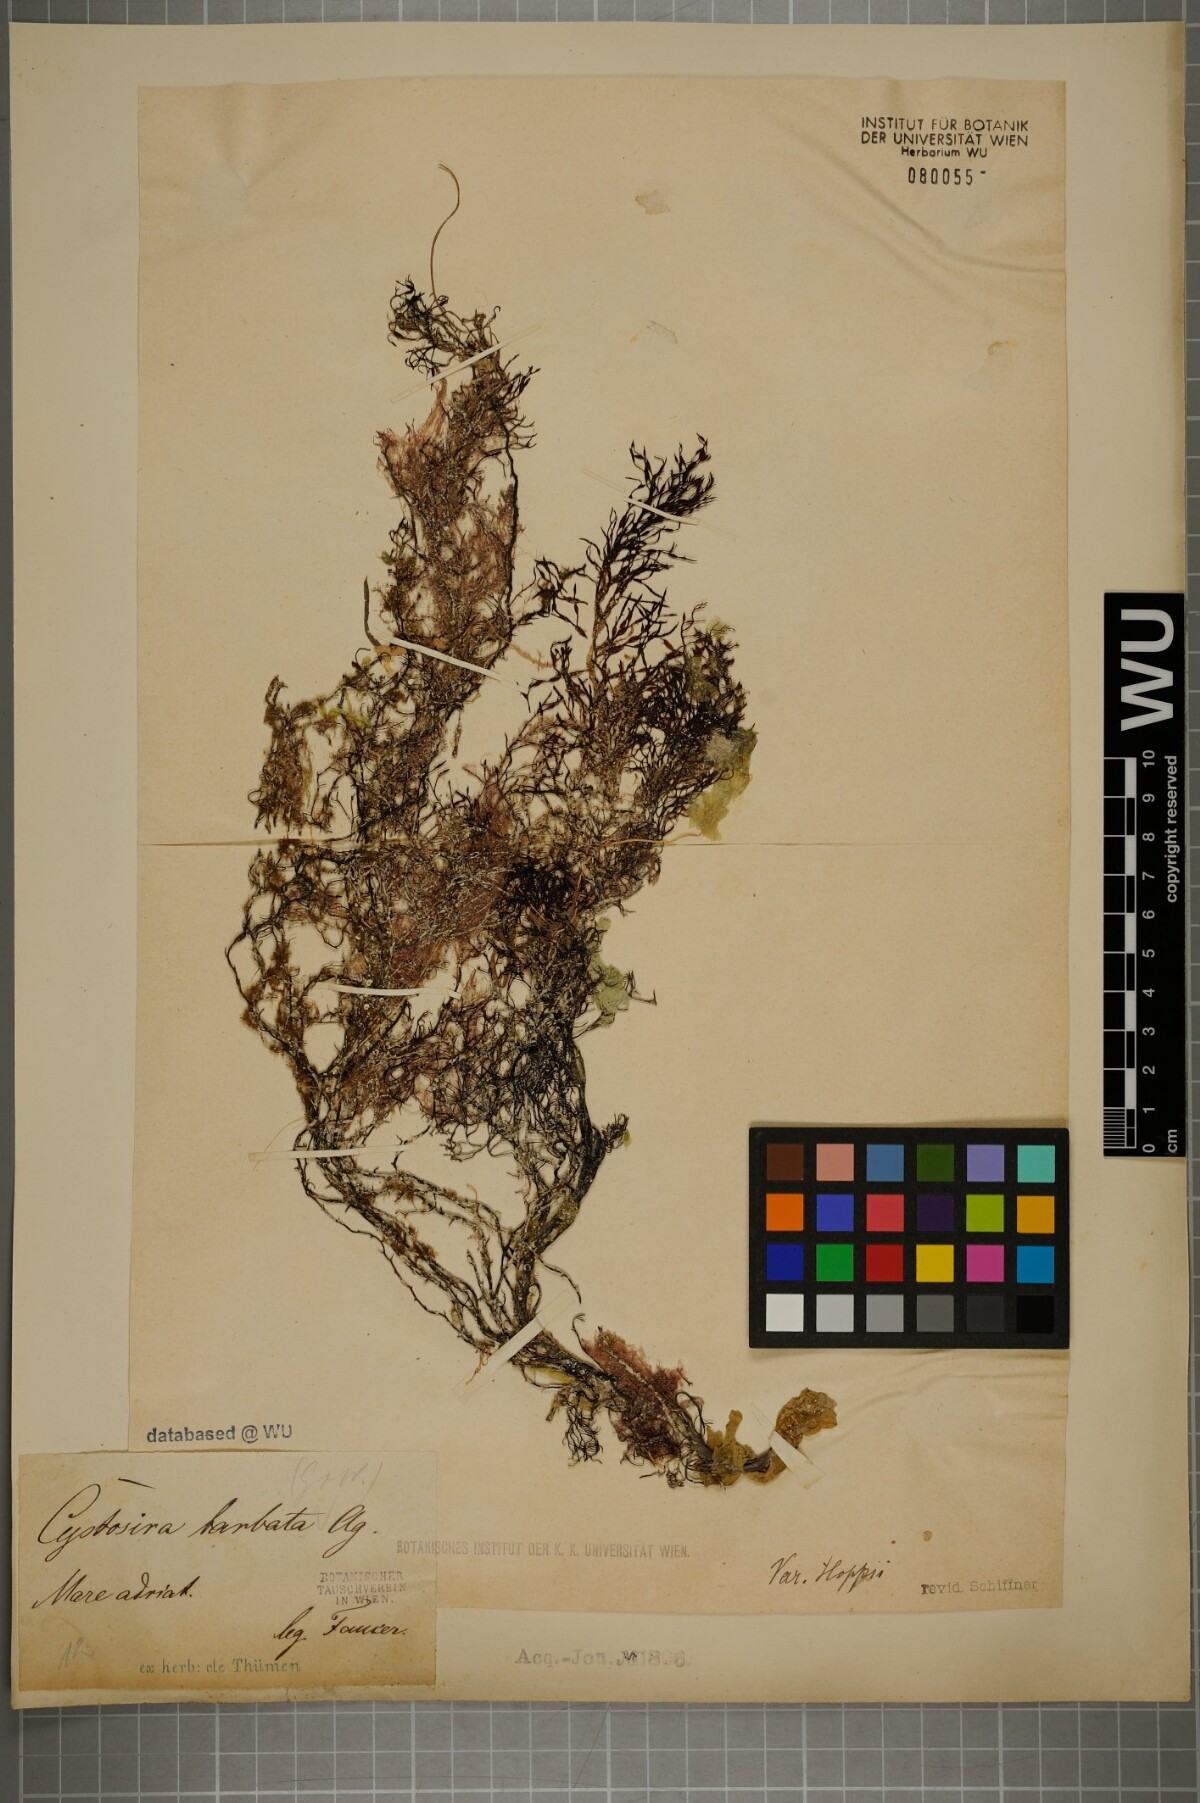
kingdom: Chromista
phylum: Ochrophyta
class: Phaeophyceae
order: Fucales
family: Sargassaceae
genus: Cystoseira
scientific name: Cystoseira Gongolaria barbata
